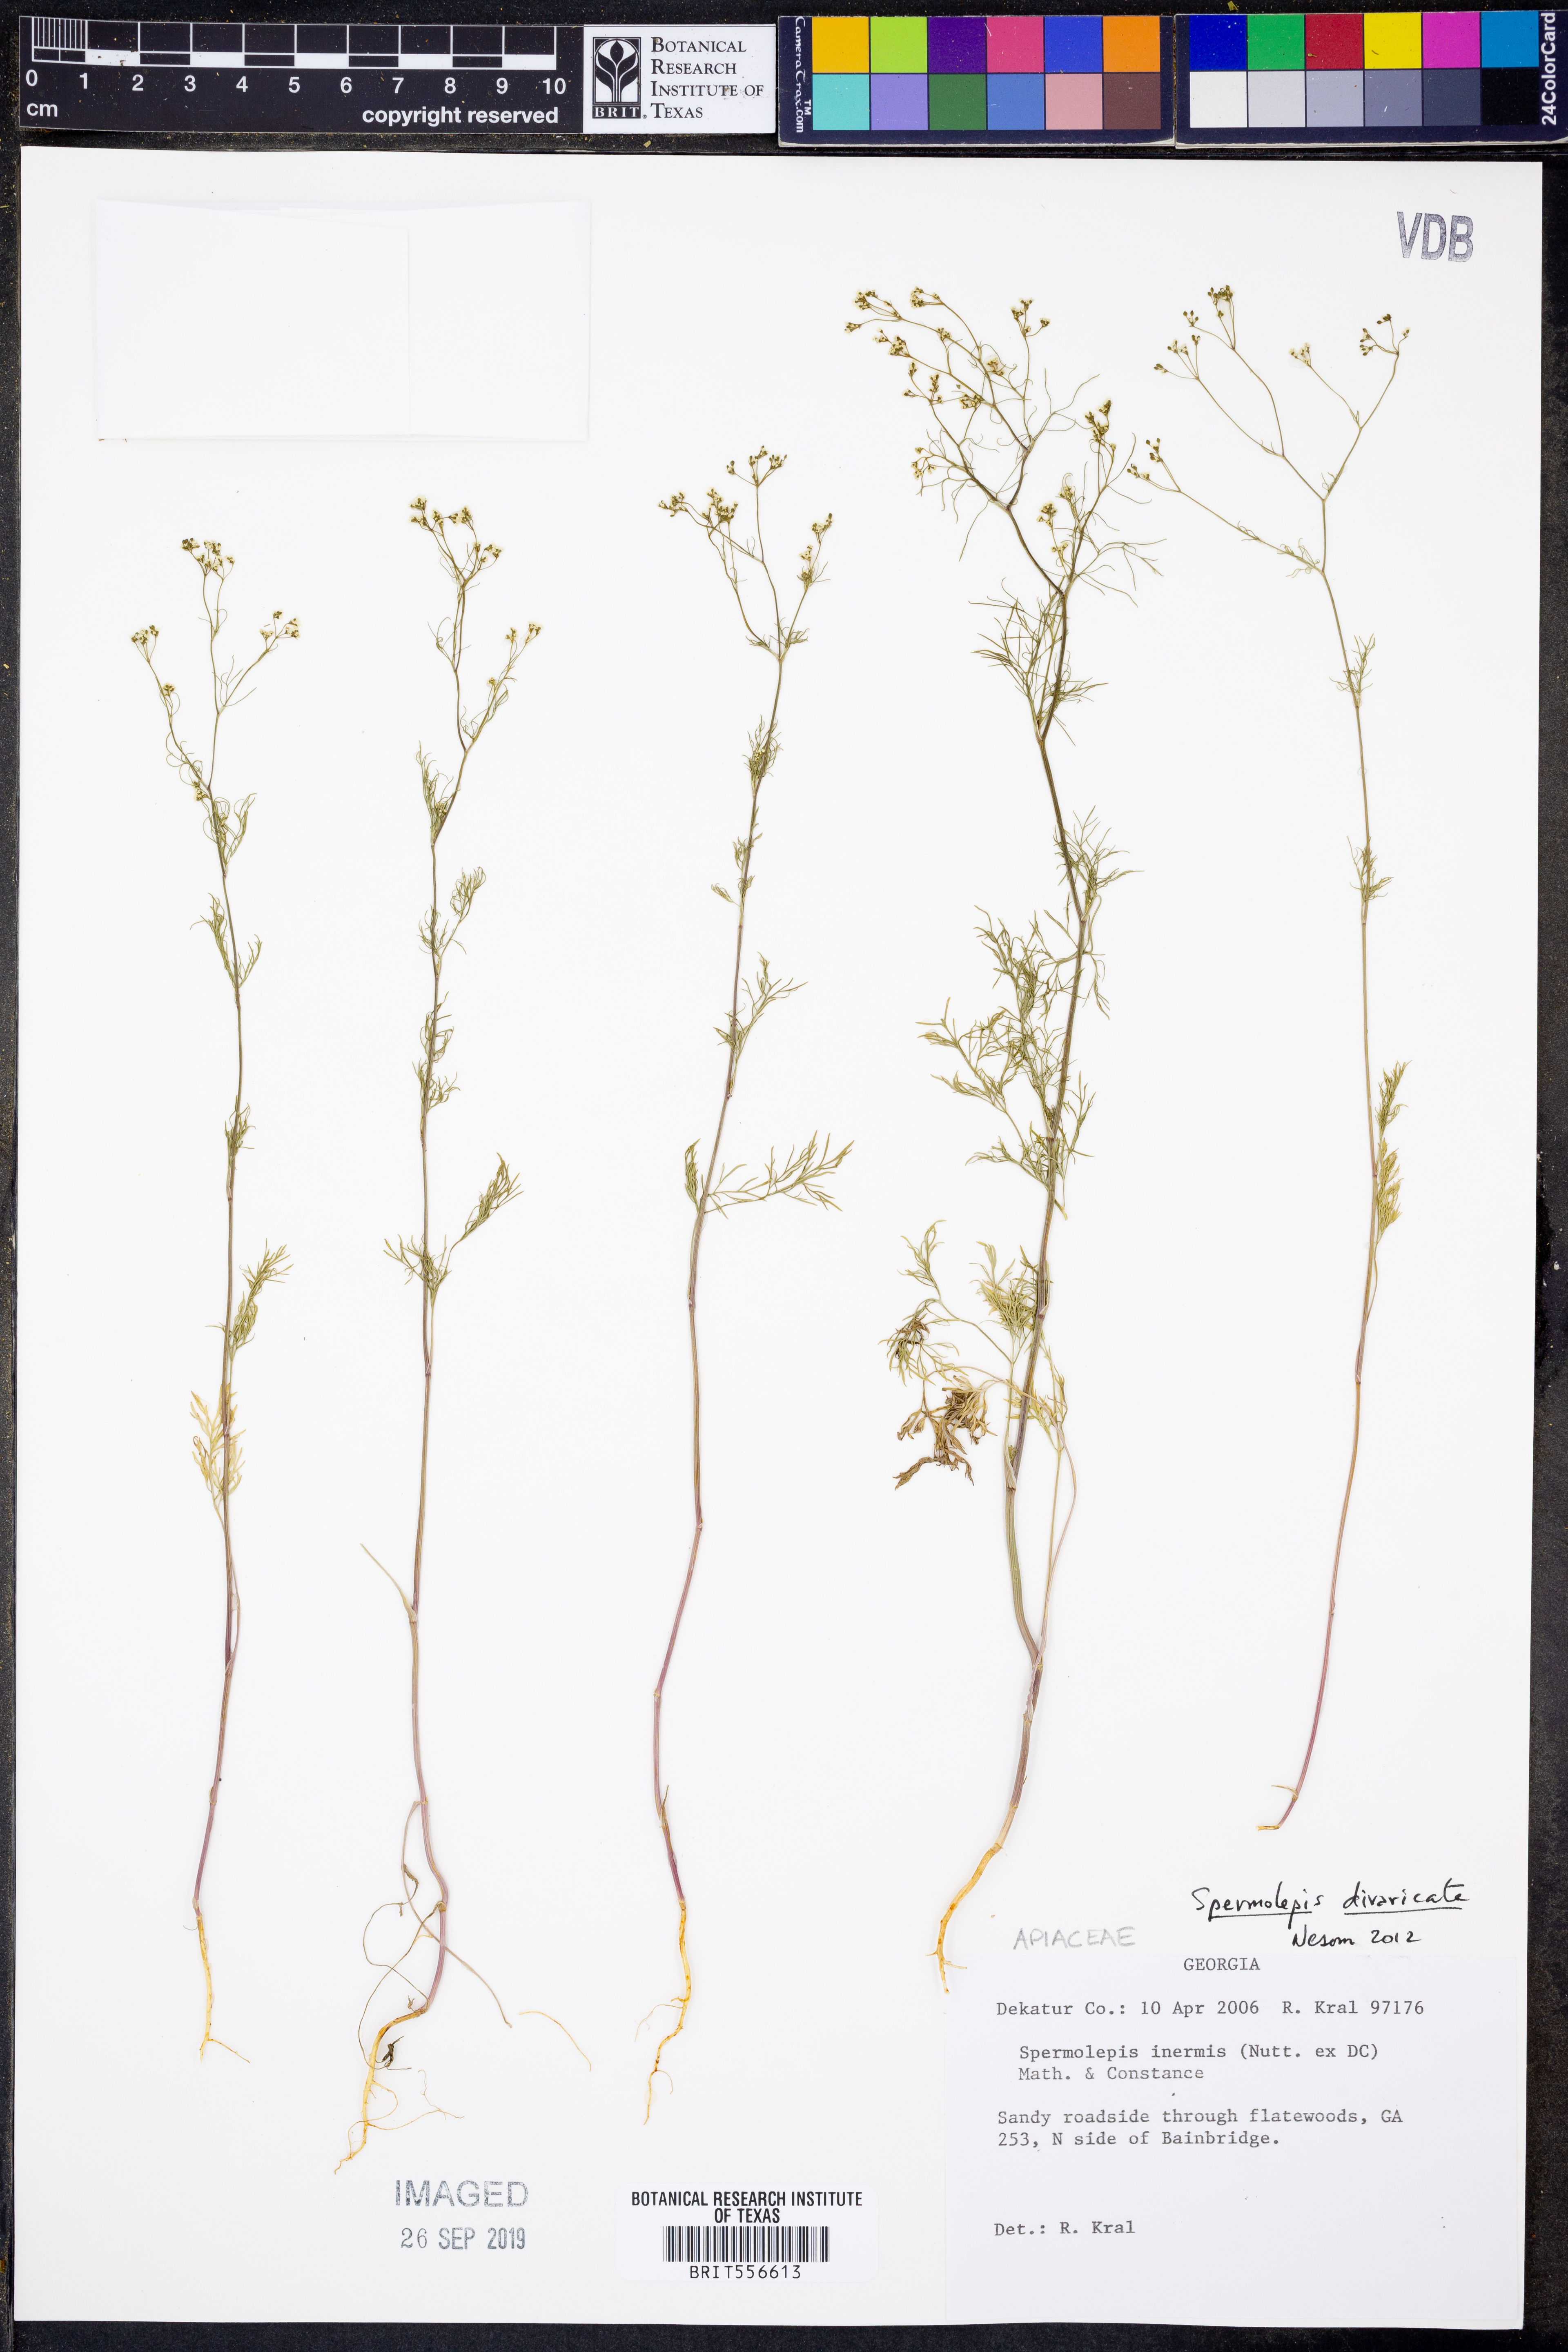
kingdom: Plantae
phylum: Tracheophyta
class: Magnoliopsida
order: Apiales
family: Apiaceae
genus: Spermolepis
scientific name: Spermolepis inermis
